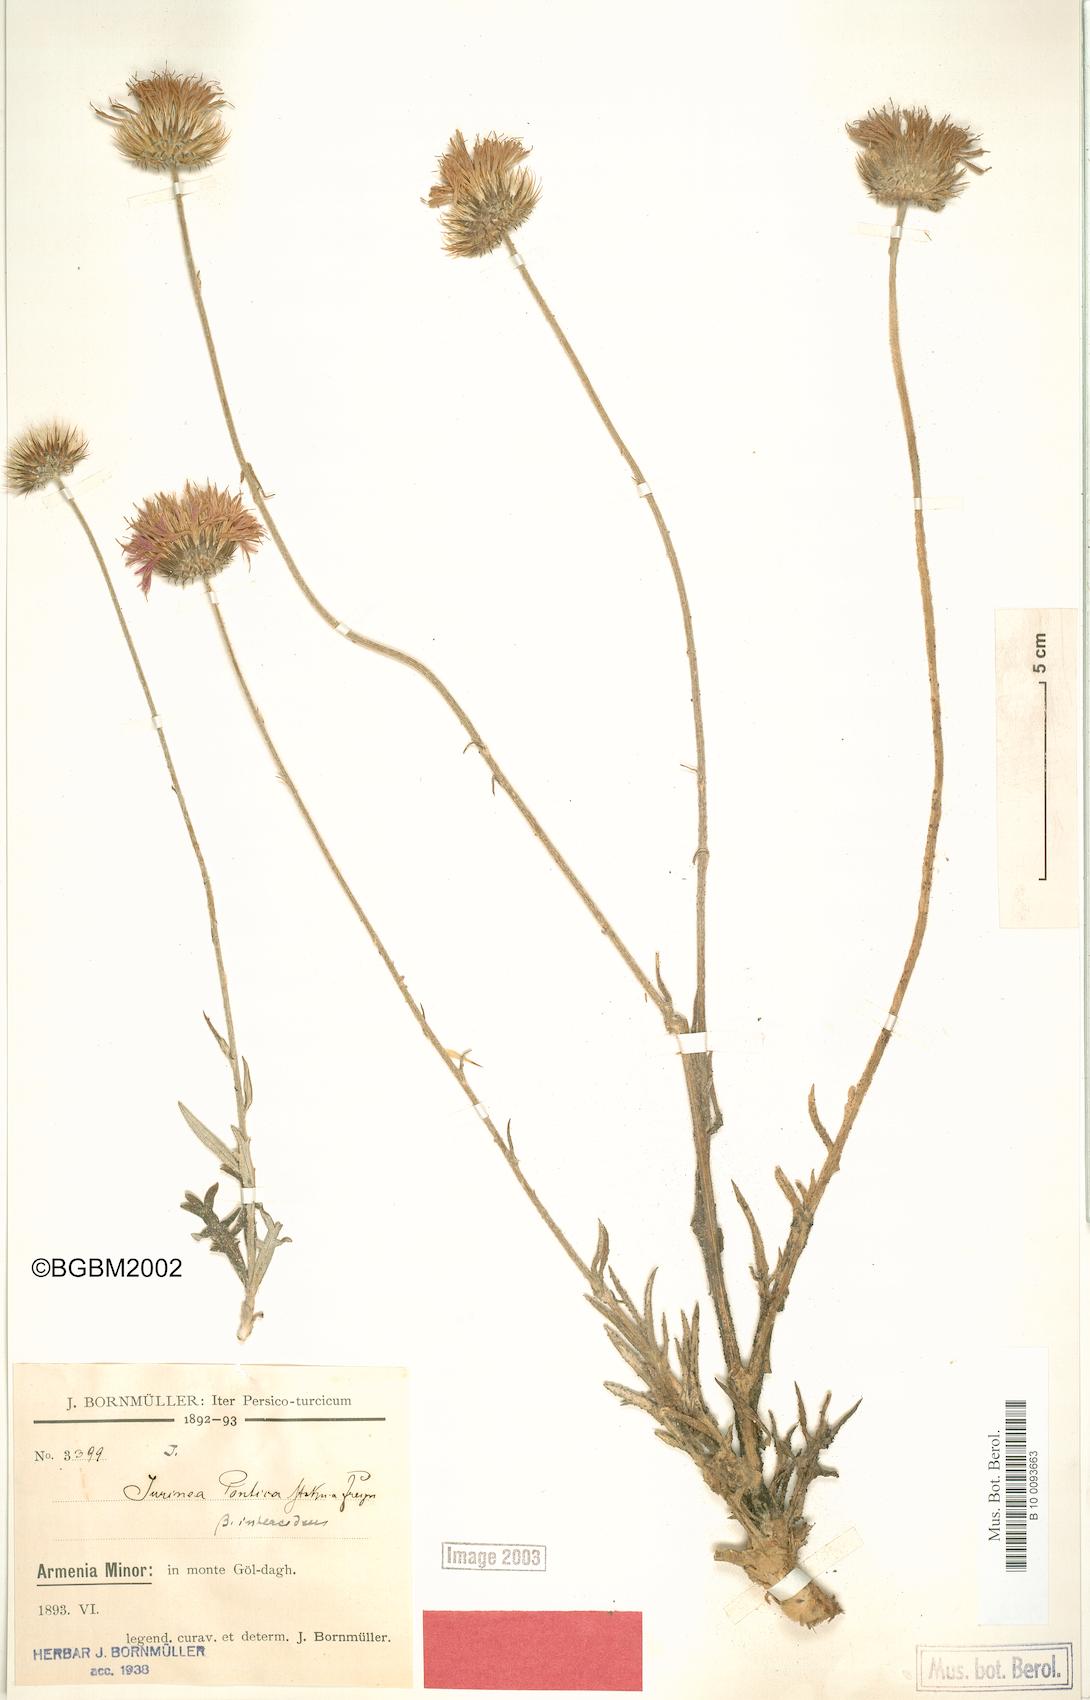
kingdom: Plantae
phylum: Tracheophyta
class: Magnoliopsida
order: Asterales
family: Asteraceae
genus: Jurinea
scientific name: Jurinea pontica
